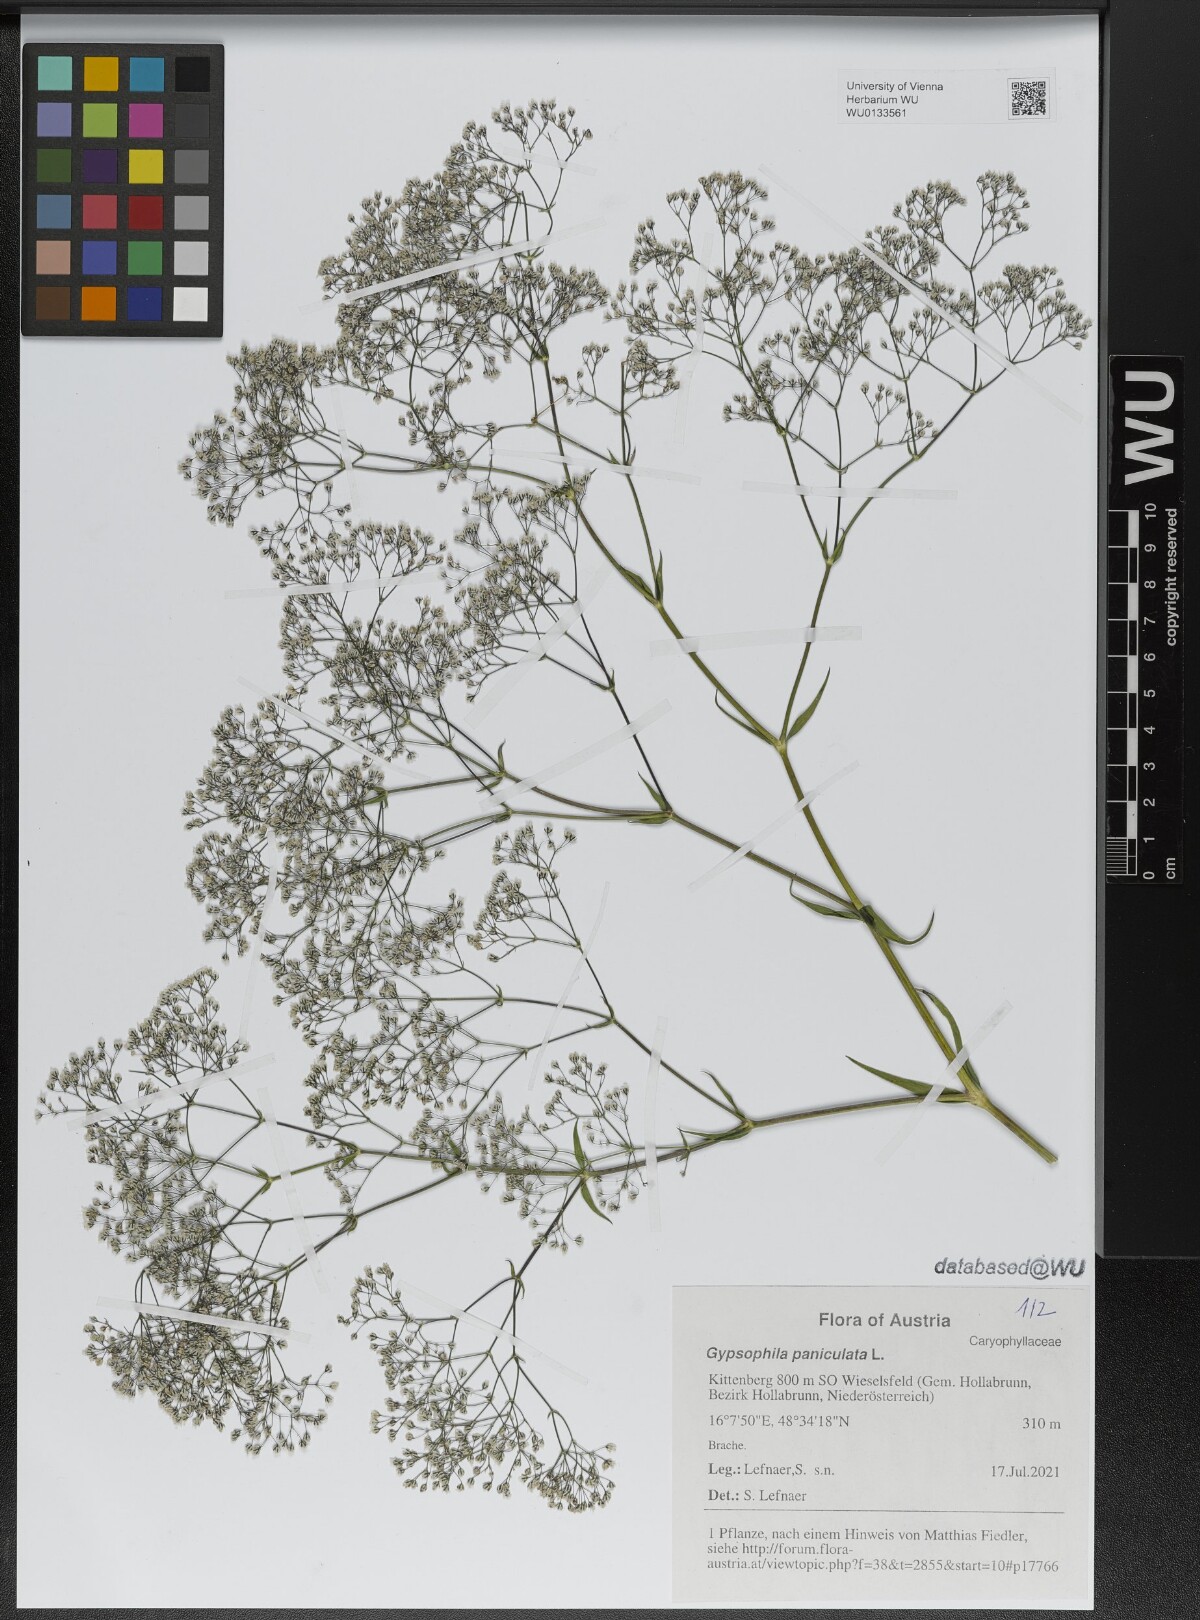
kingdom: Plantae
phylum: Tracheophyta
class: Magnoliopsida
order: Caryophyllales
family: Caryophyllaceae
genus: Gypsophila
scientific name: Gypsophila paniculata
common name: Baby's-breath
